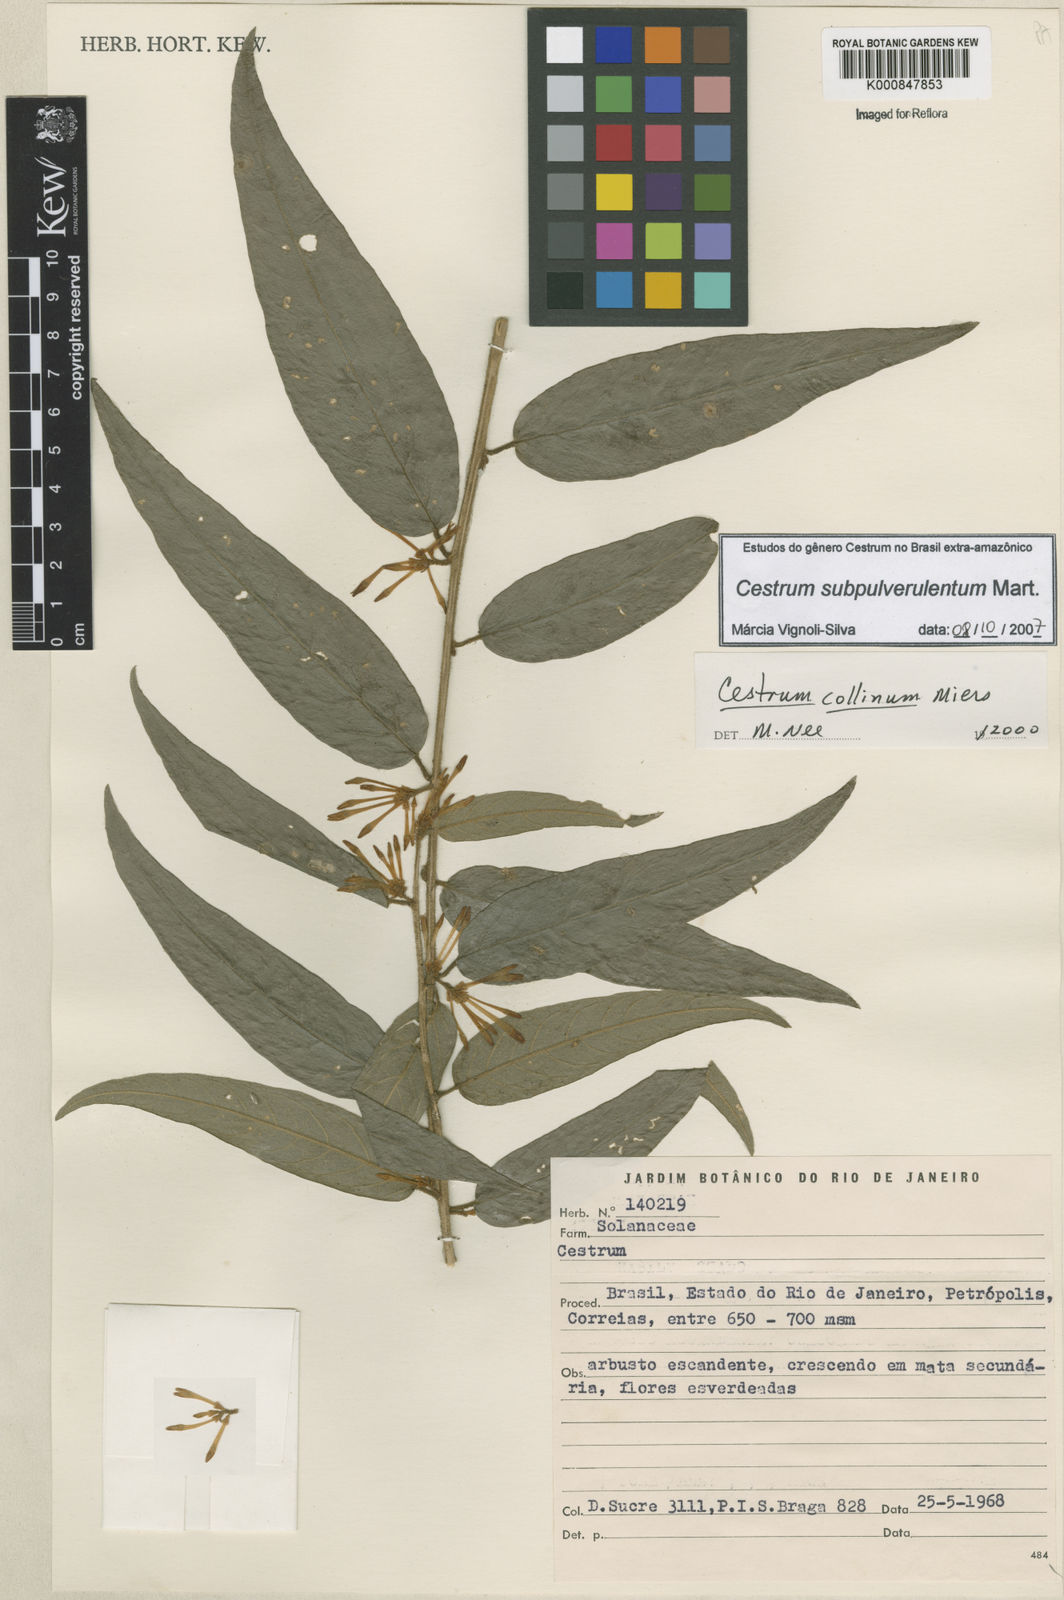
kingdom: Plantae
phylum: Tracheophyta
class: Magnoliopsida
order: Solanales
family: Solanaceae
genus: Cestrum
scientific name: Cestrum subpulverulentum
